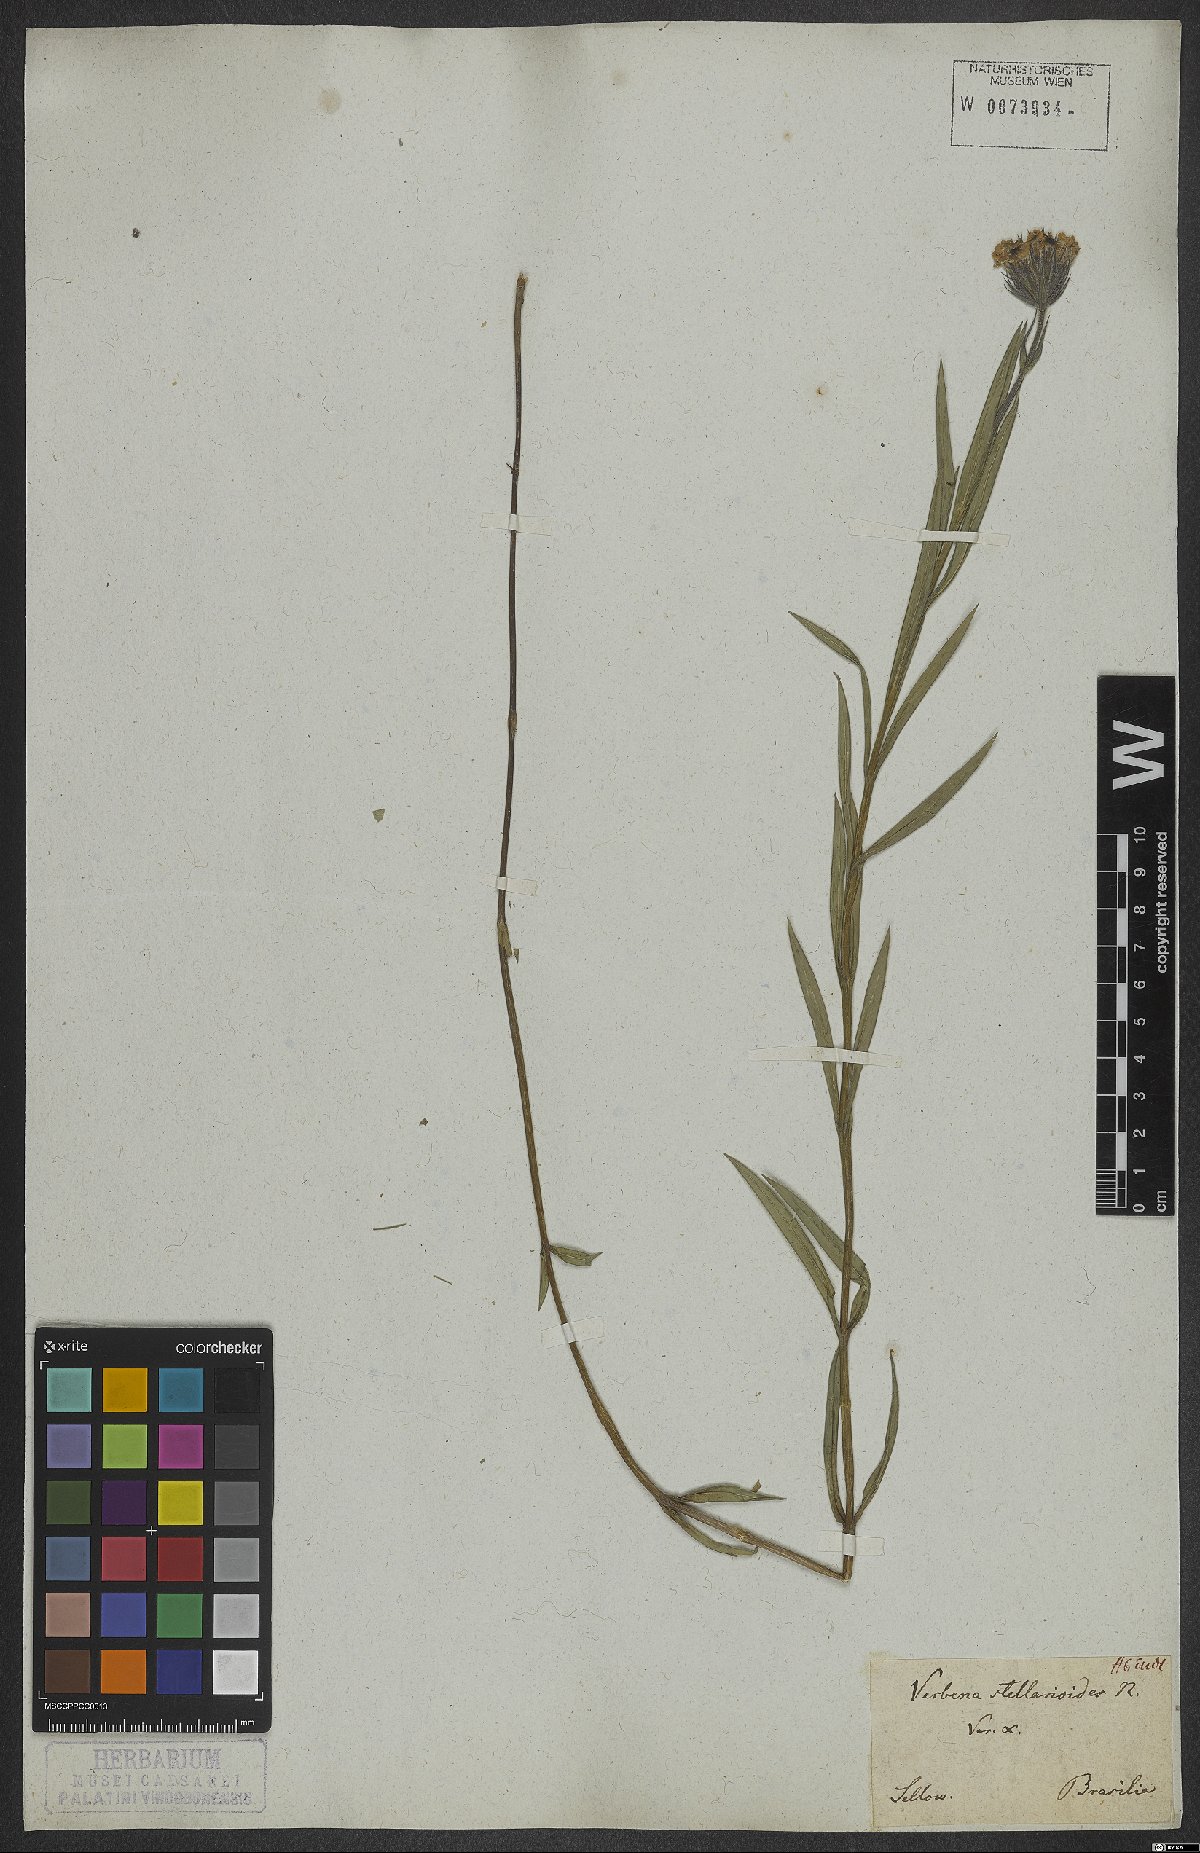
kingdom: Plantae
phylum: Tracheophyta
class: Magnoliopsida
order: Lamiales
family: Verbenaceae
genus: Verbena
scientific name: Verbena stellarioides
